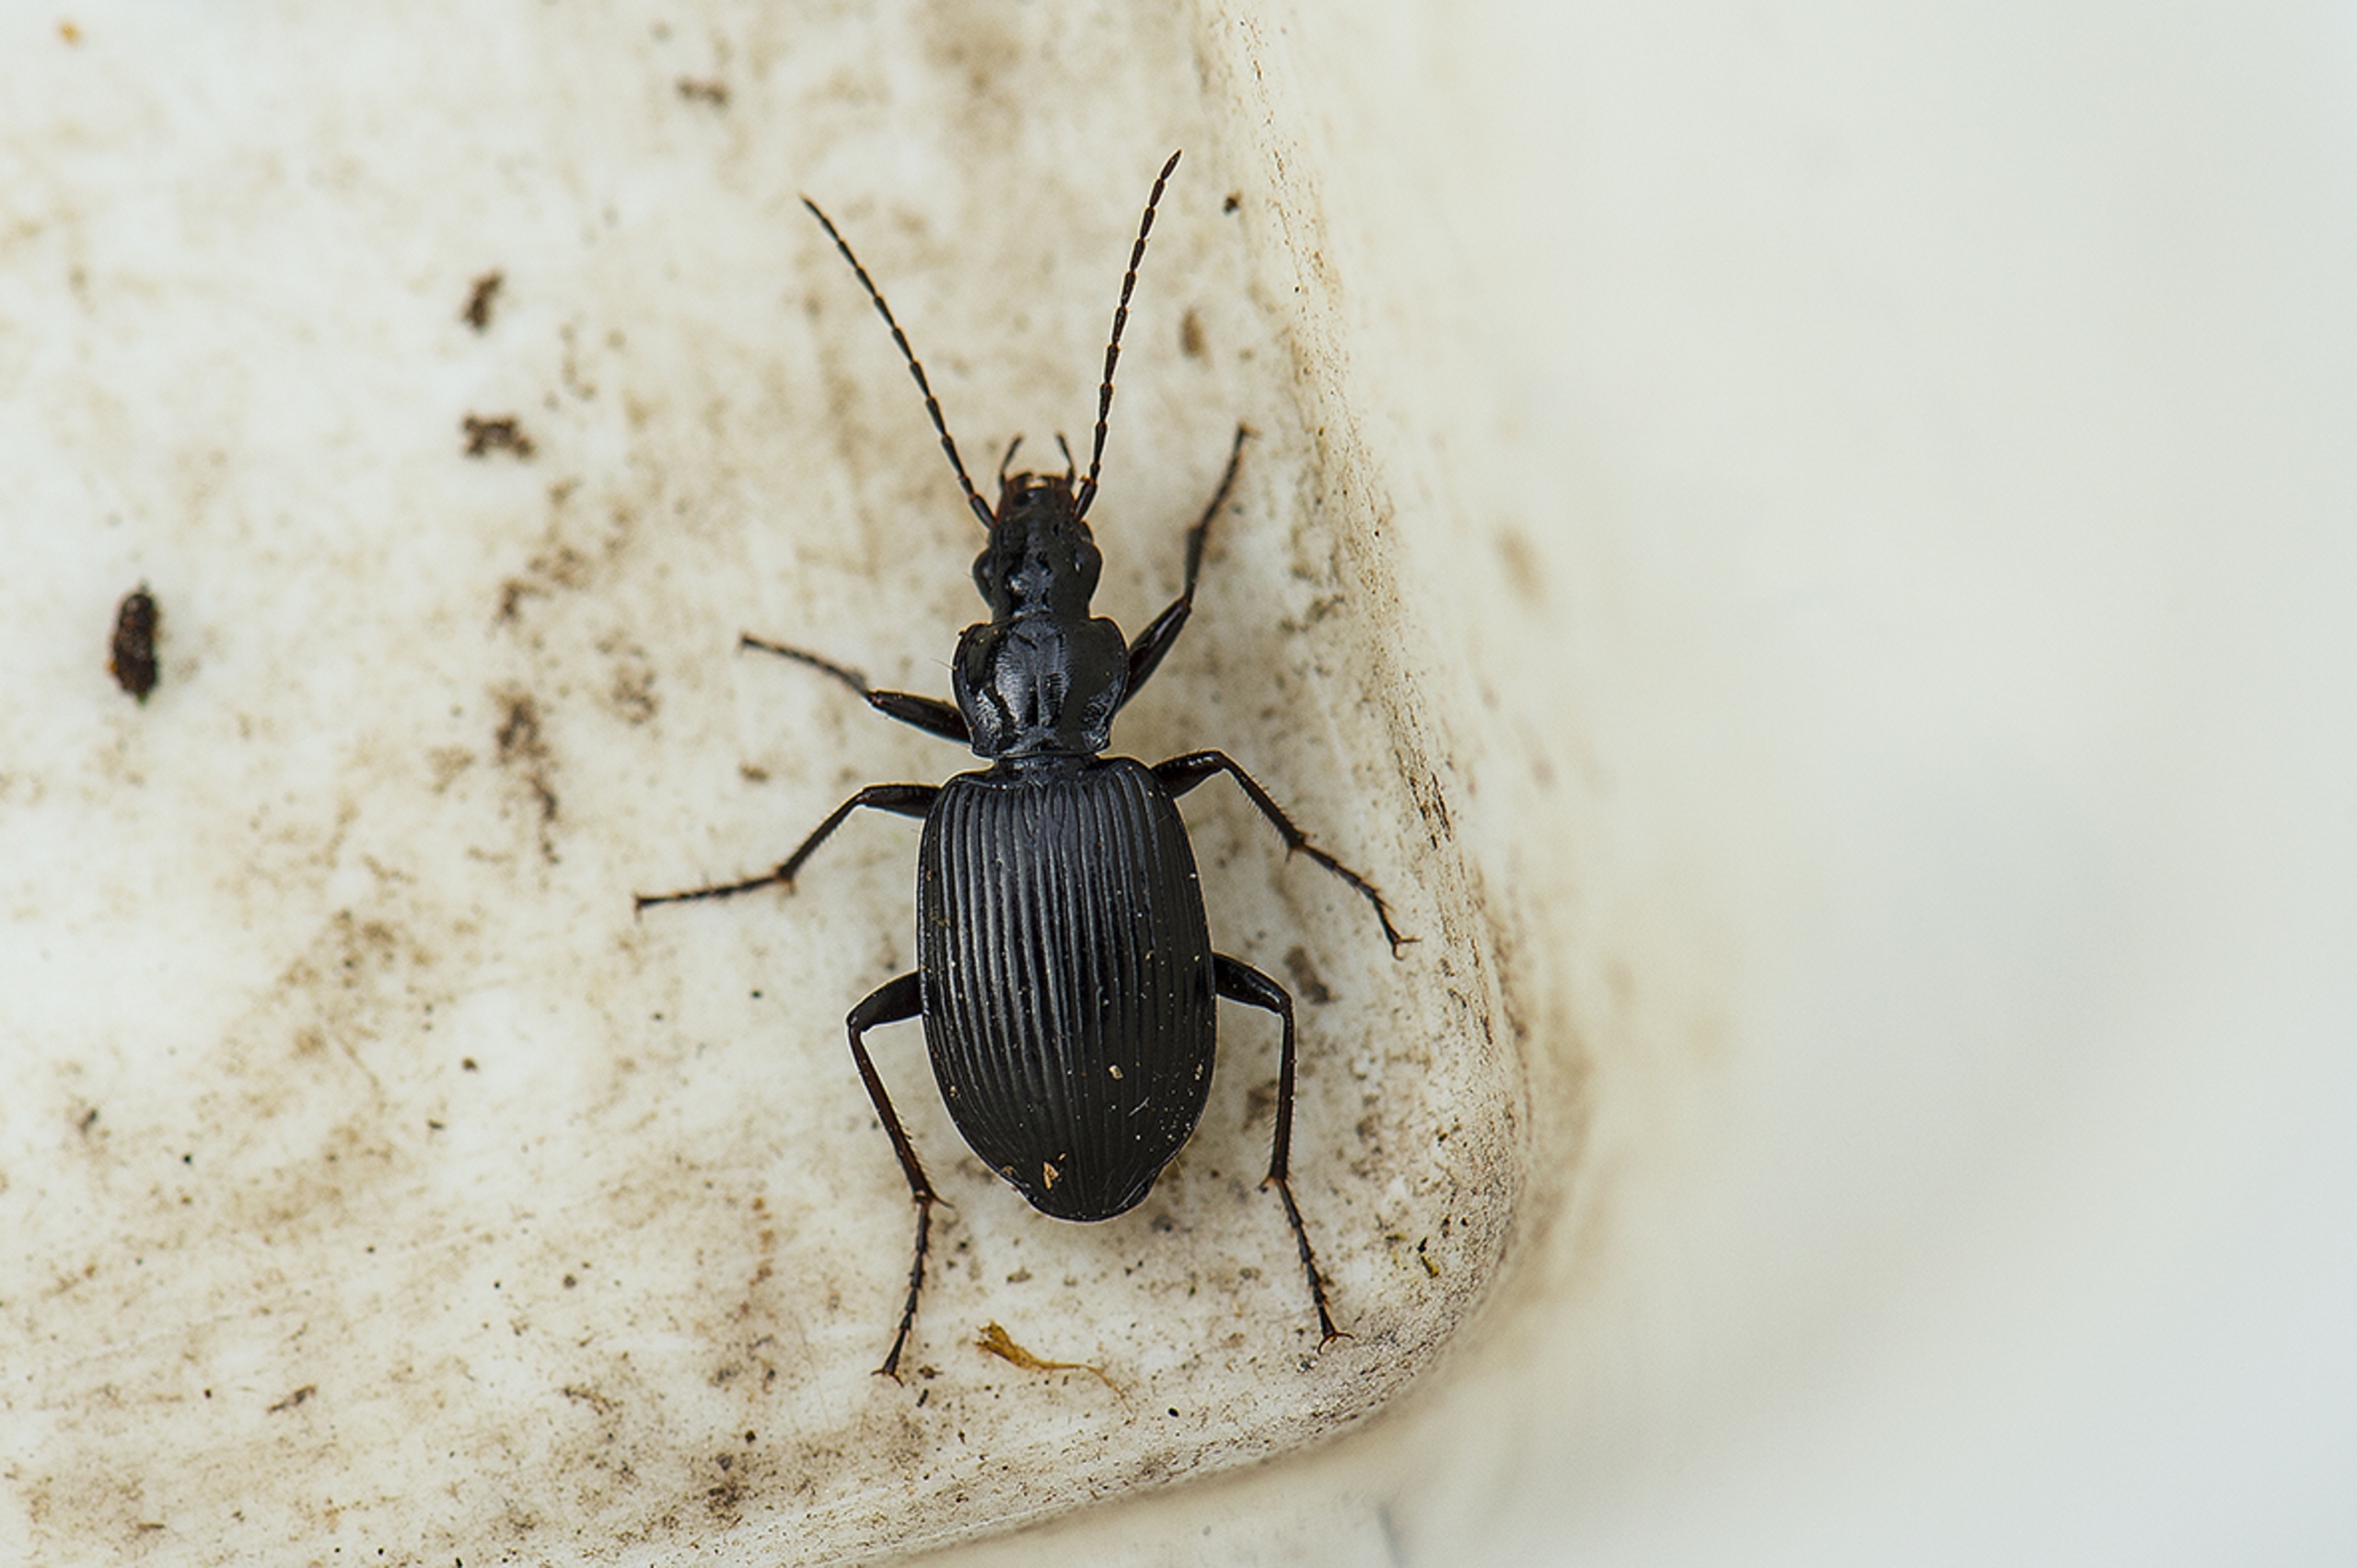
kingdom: Animalia
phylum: Arthropoda
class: Insecta
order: Coleoptera
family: Carabidae
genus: Platynus
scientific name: Platynus assimilis
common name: Skovkvikløber
